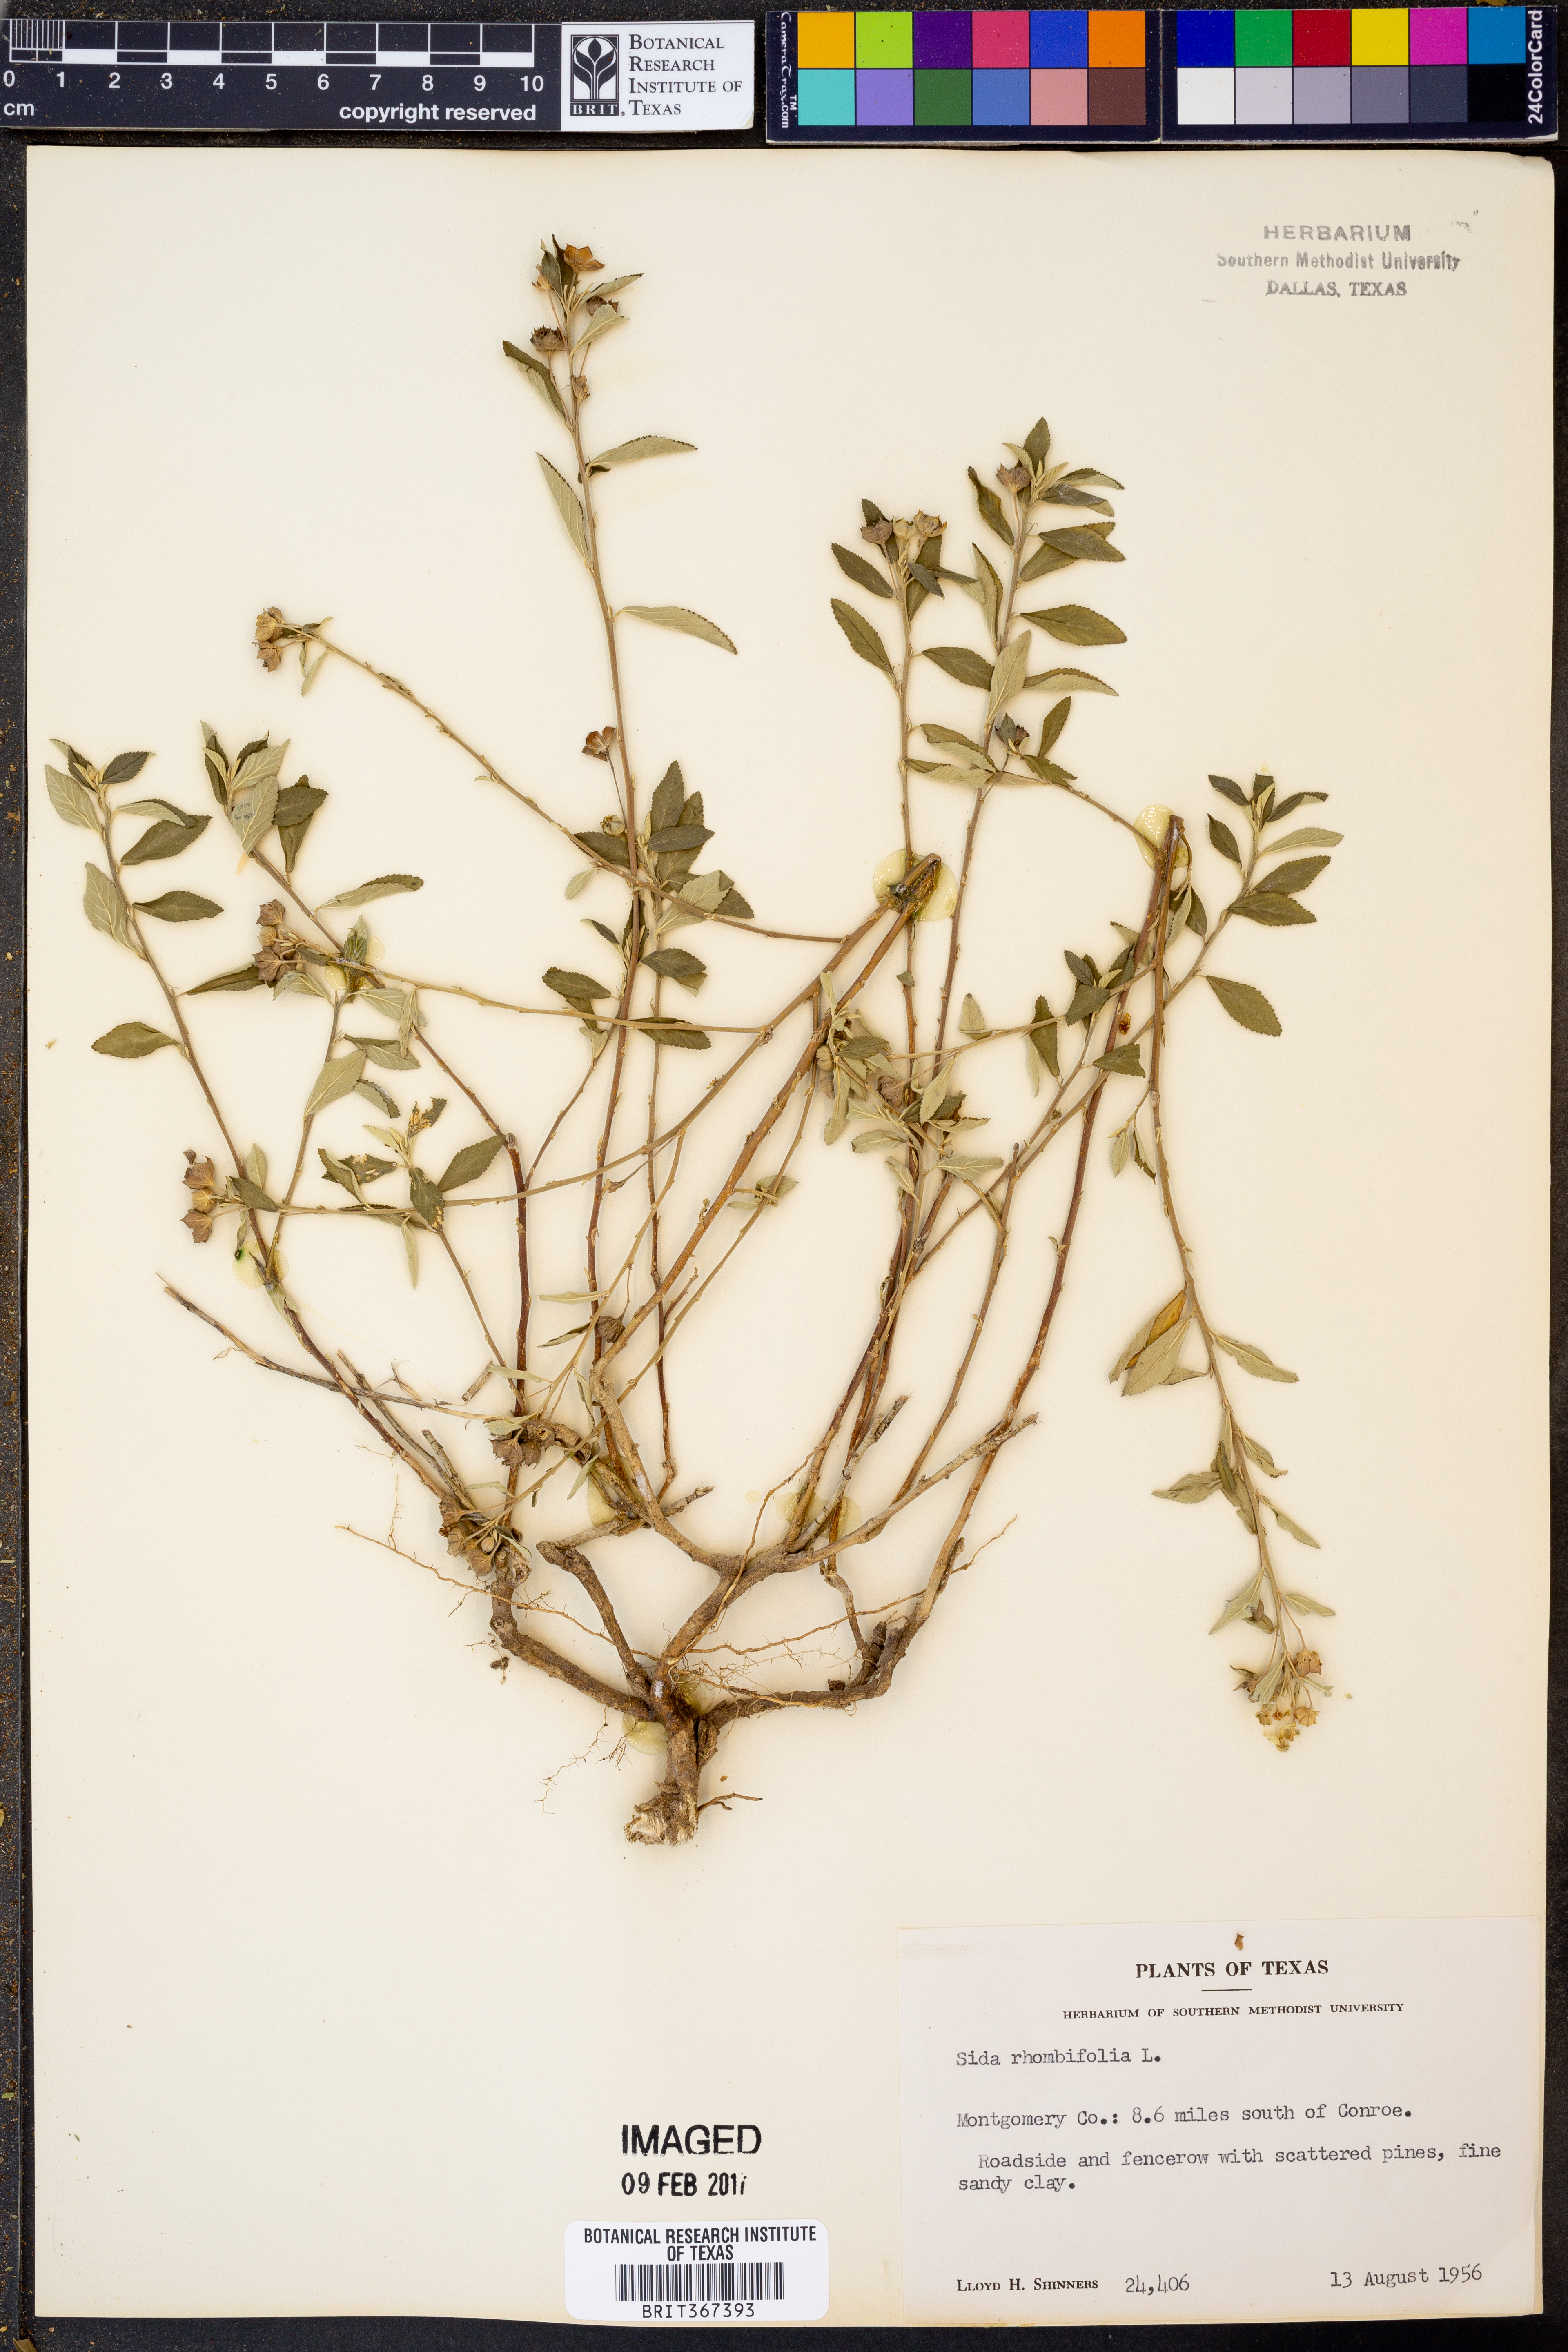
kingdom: Plantae
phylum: Tracheophyta
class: Magnoliopsida
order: Malvales
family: Malvaceae
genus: Sida
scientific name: Sida rhombifolia
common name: Queensland-hemp
